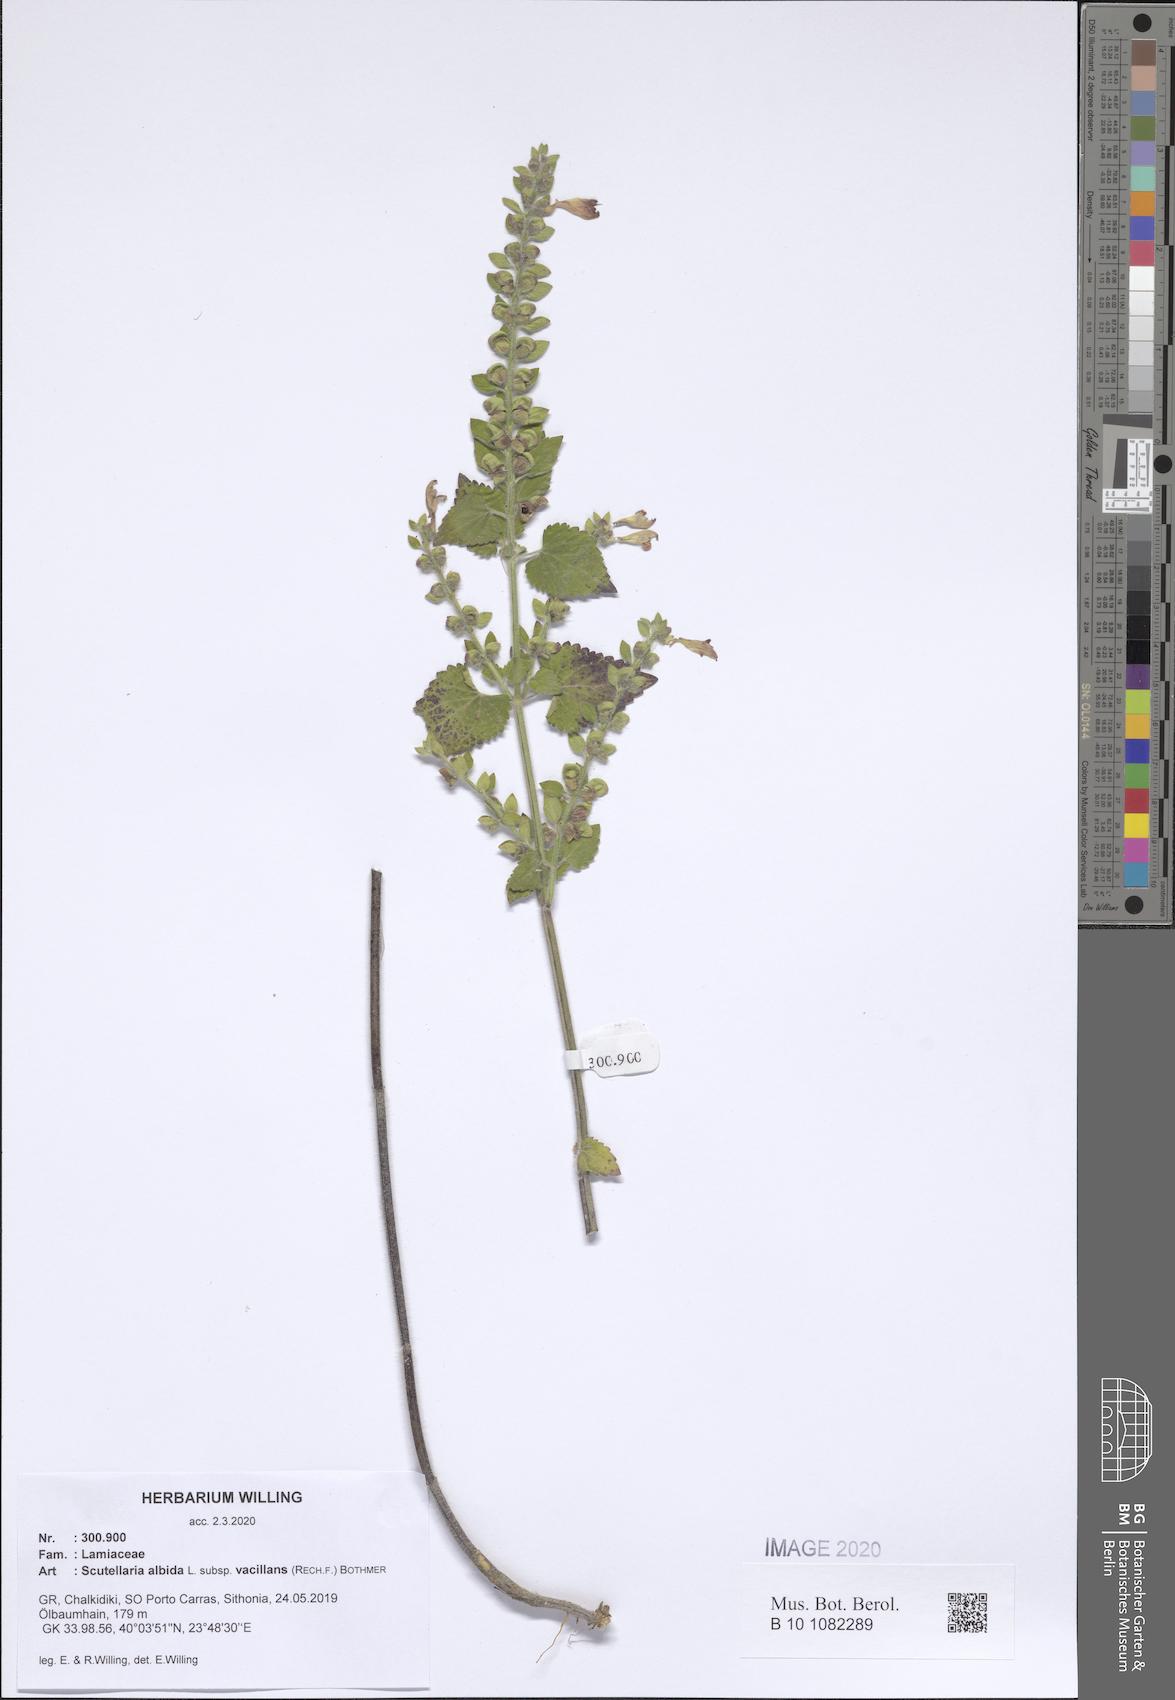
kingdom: Plantae
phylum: Tracheophyta
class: Magnoliopsida
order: Lamiales
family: Lamiaceae
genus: Scutellaria
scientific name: Scutellaria albida
